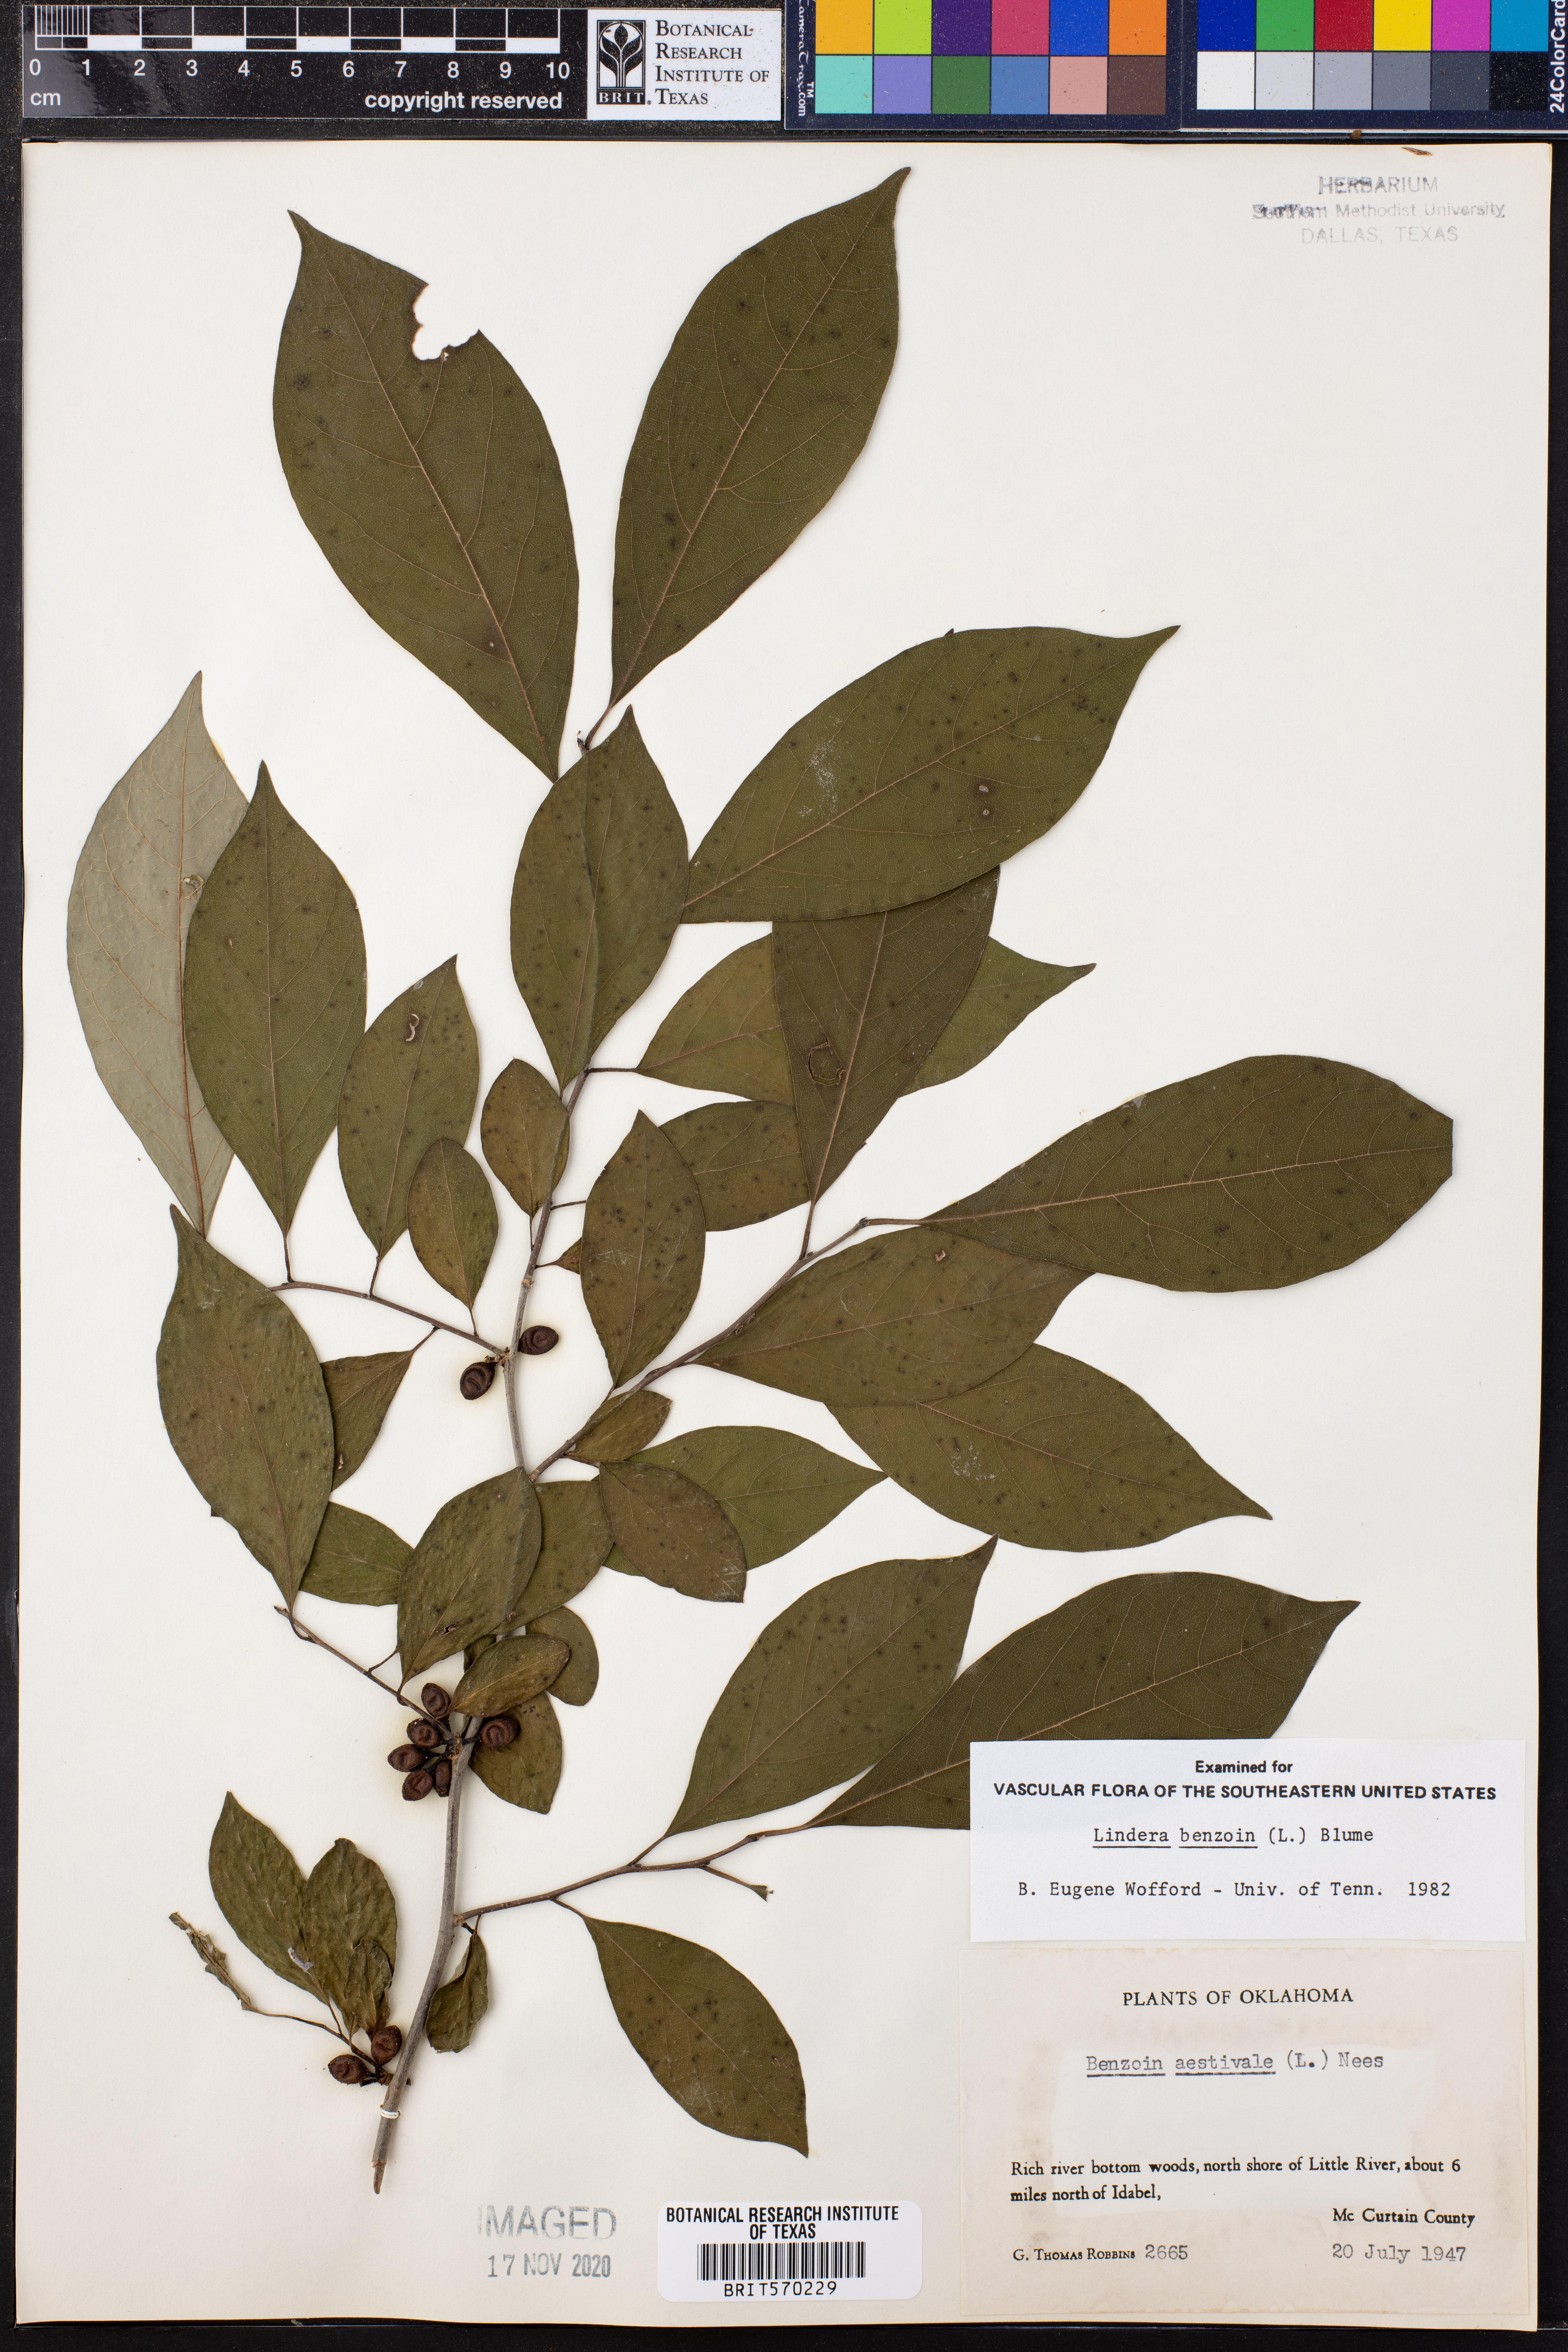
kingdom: Plantae
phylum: Tracheophyta
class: Magnoliopsida
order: Laurales
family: Lauraceae
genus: Lindera
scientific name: Lindera benzoin
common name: Spicebush
